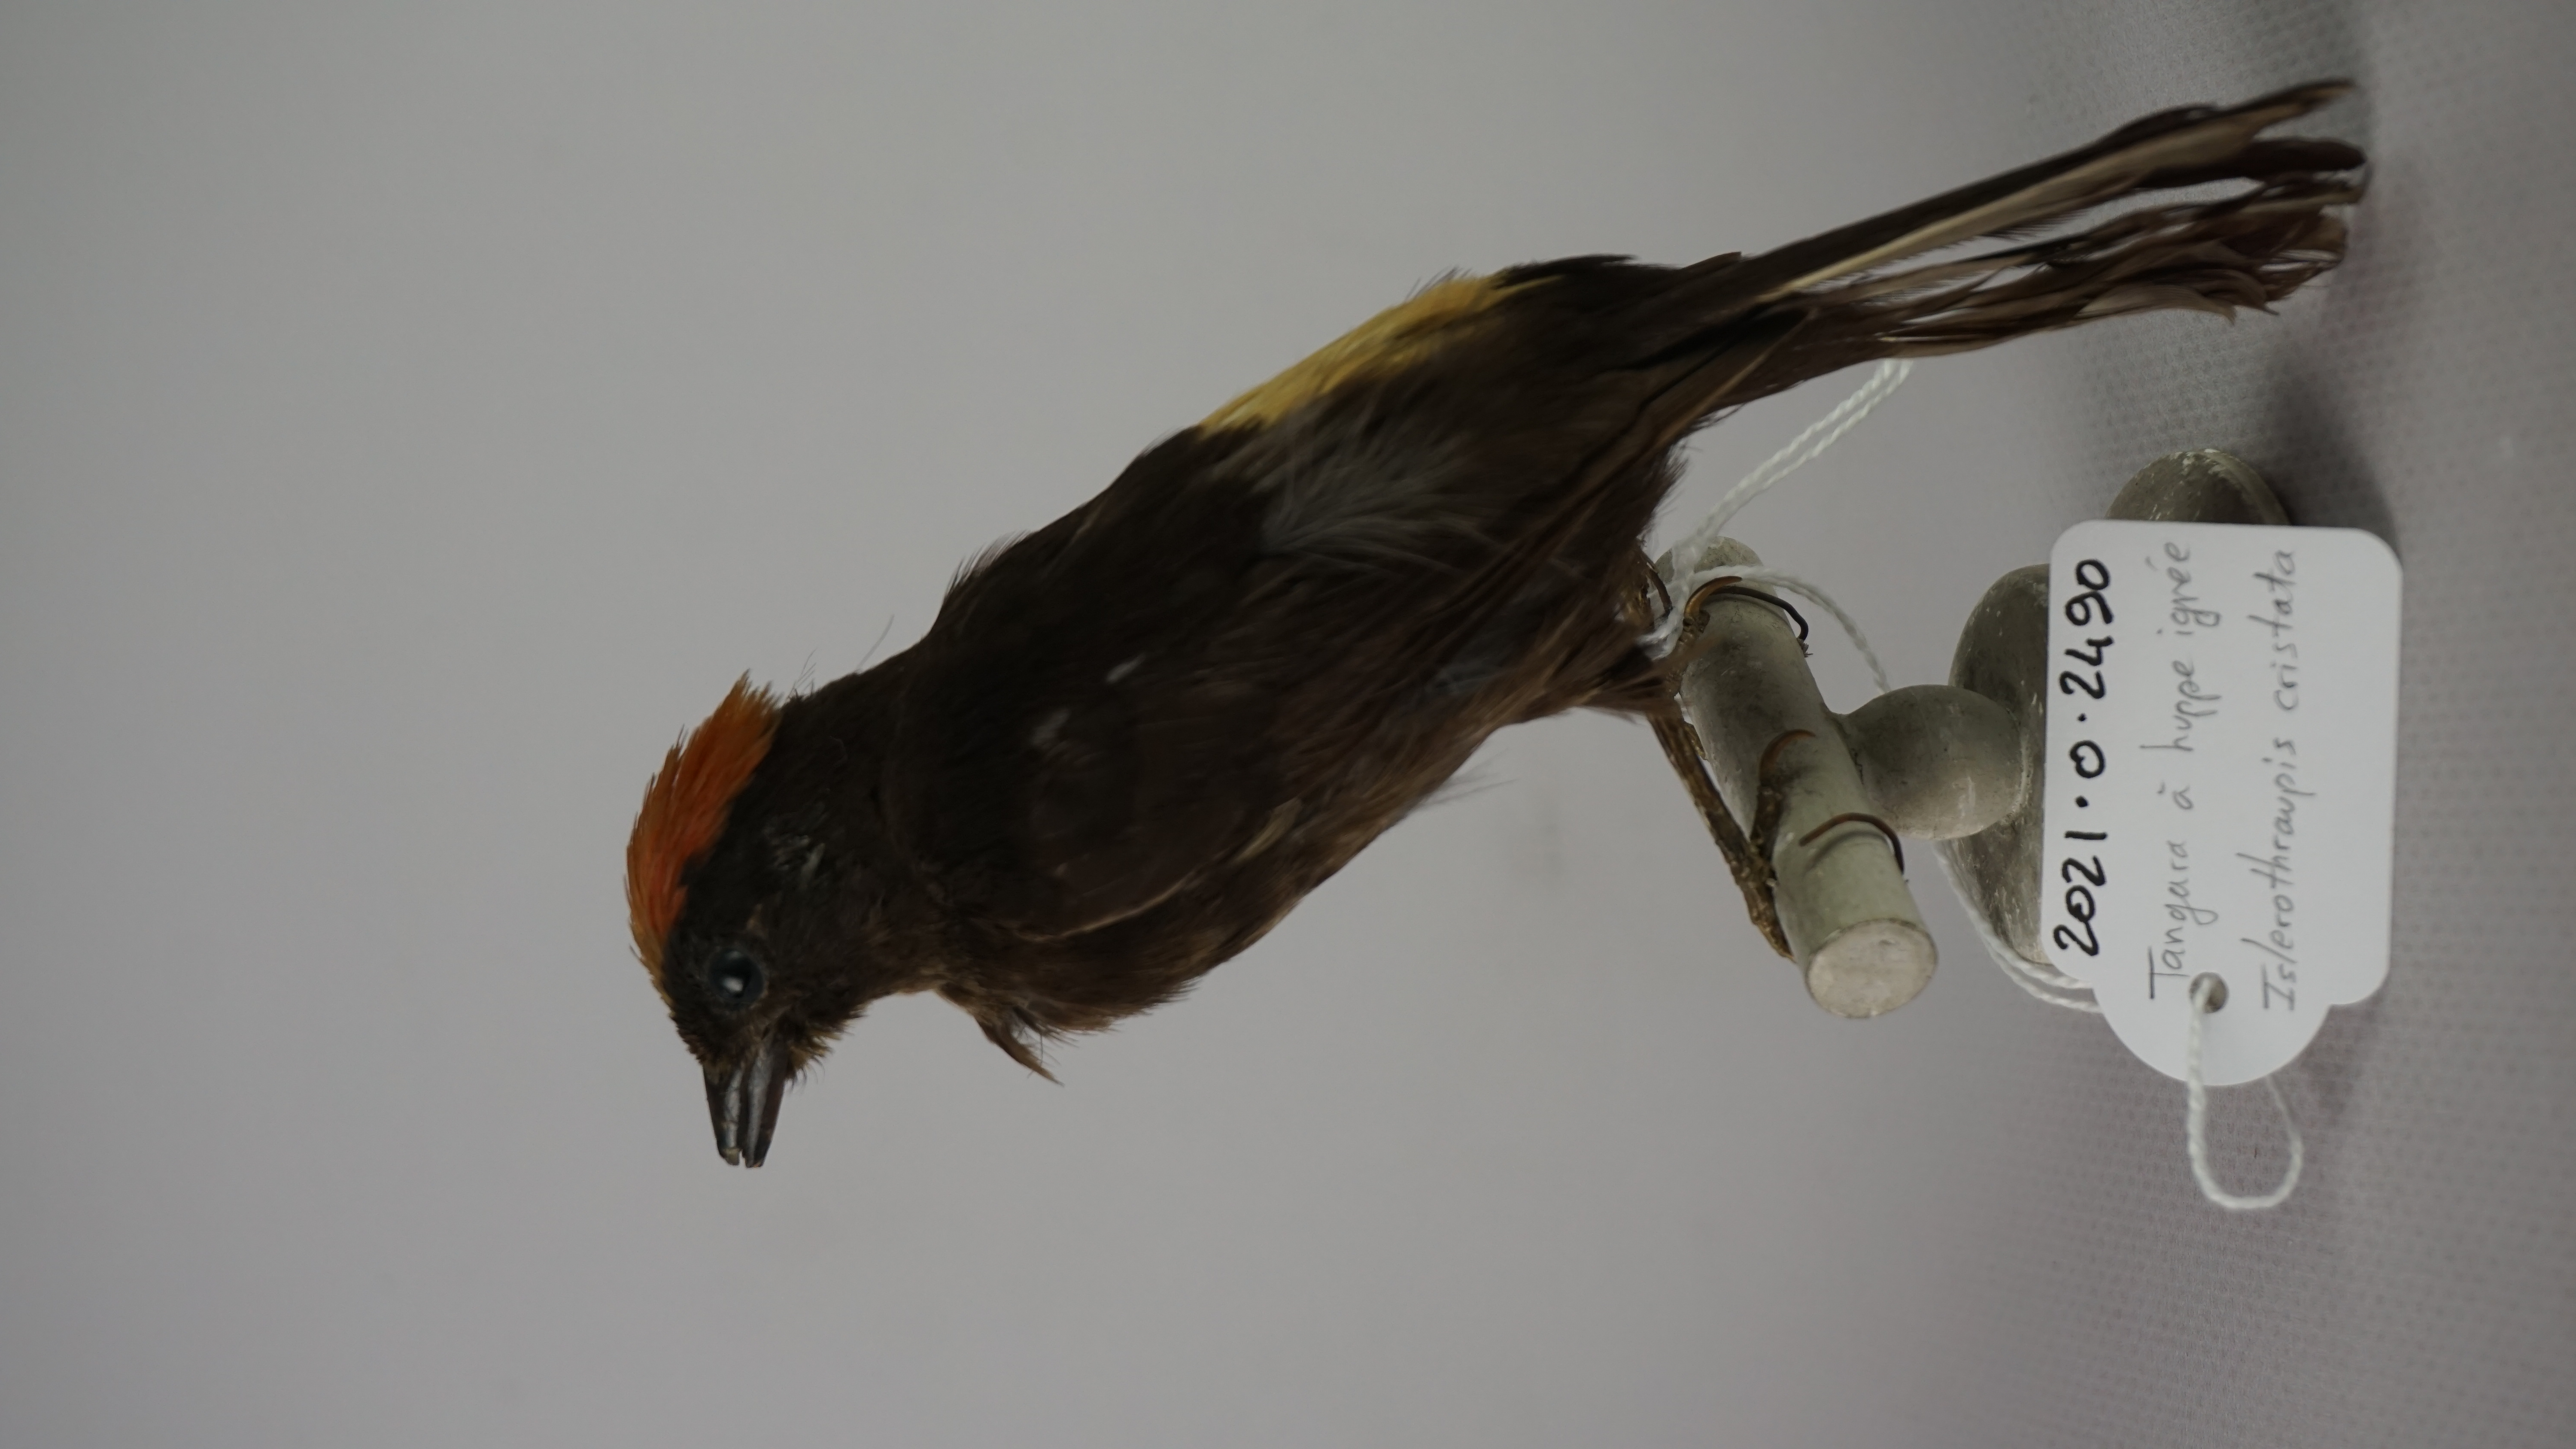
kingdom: Animalia
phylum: Chordata
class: Aves
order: Passeriformes
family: Thraupidae
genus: Loriotus
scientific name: Loriotus cristatus
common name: Flame-crested tanager
